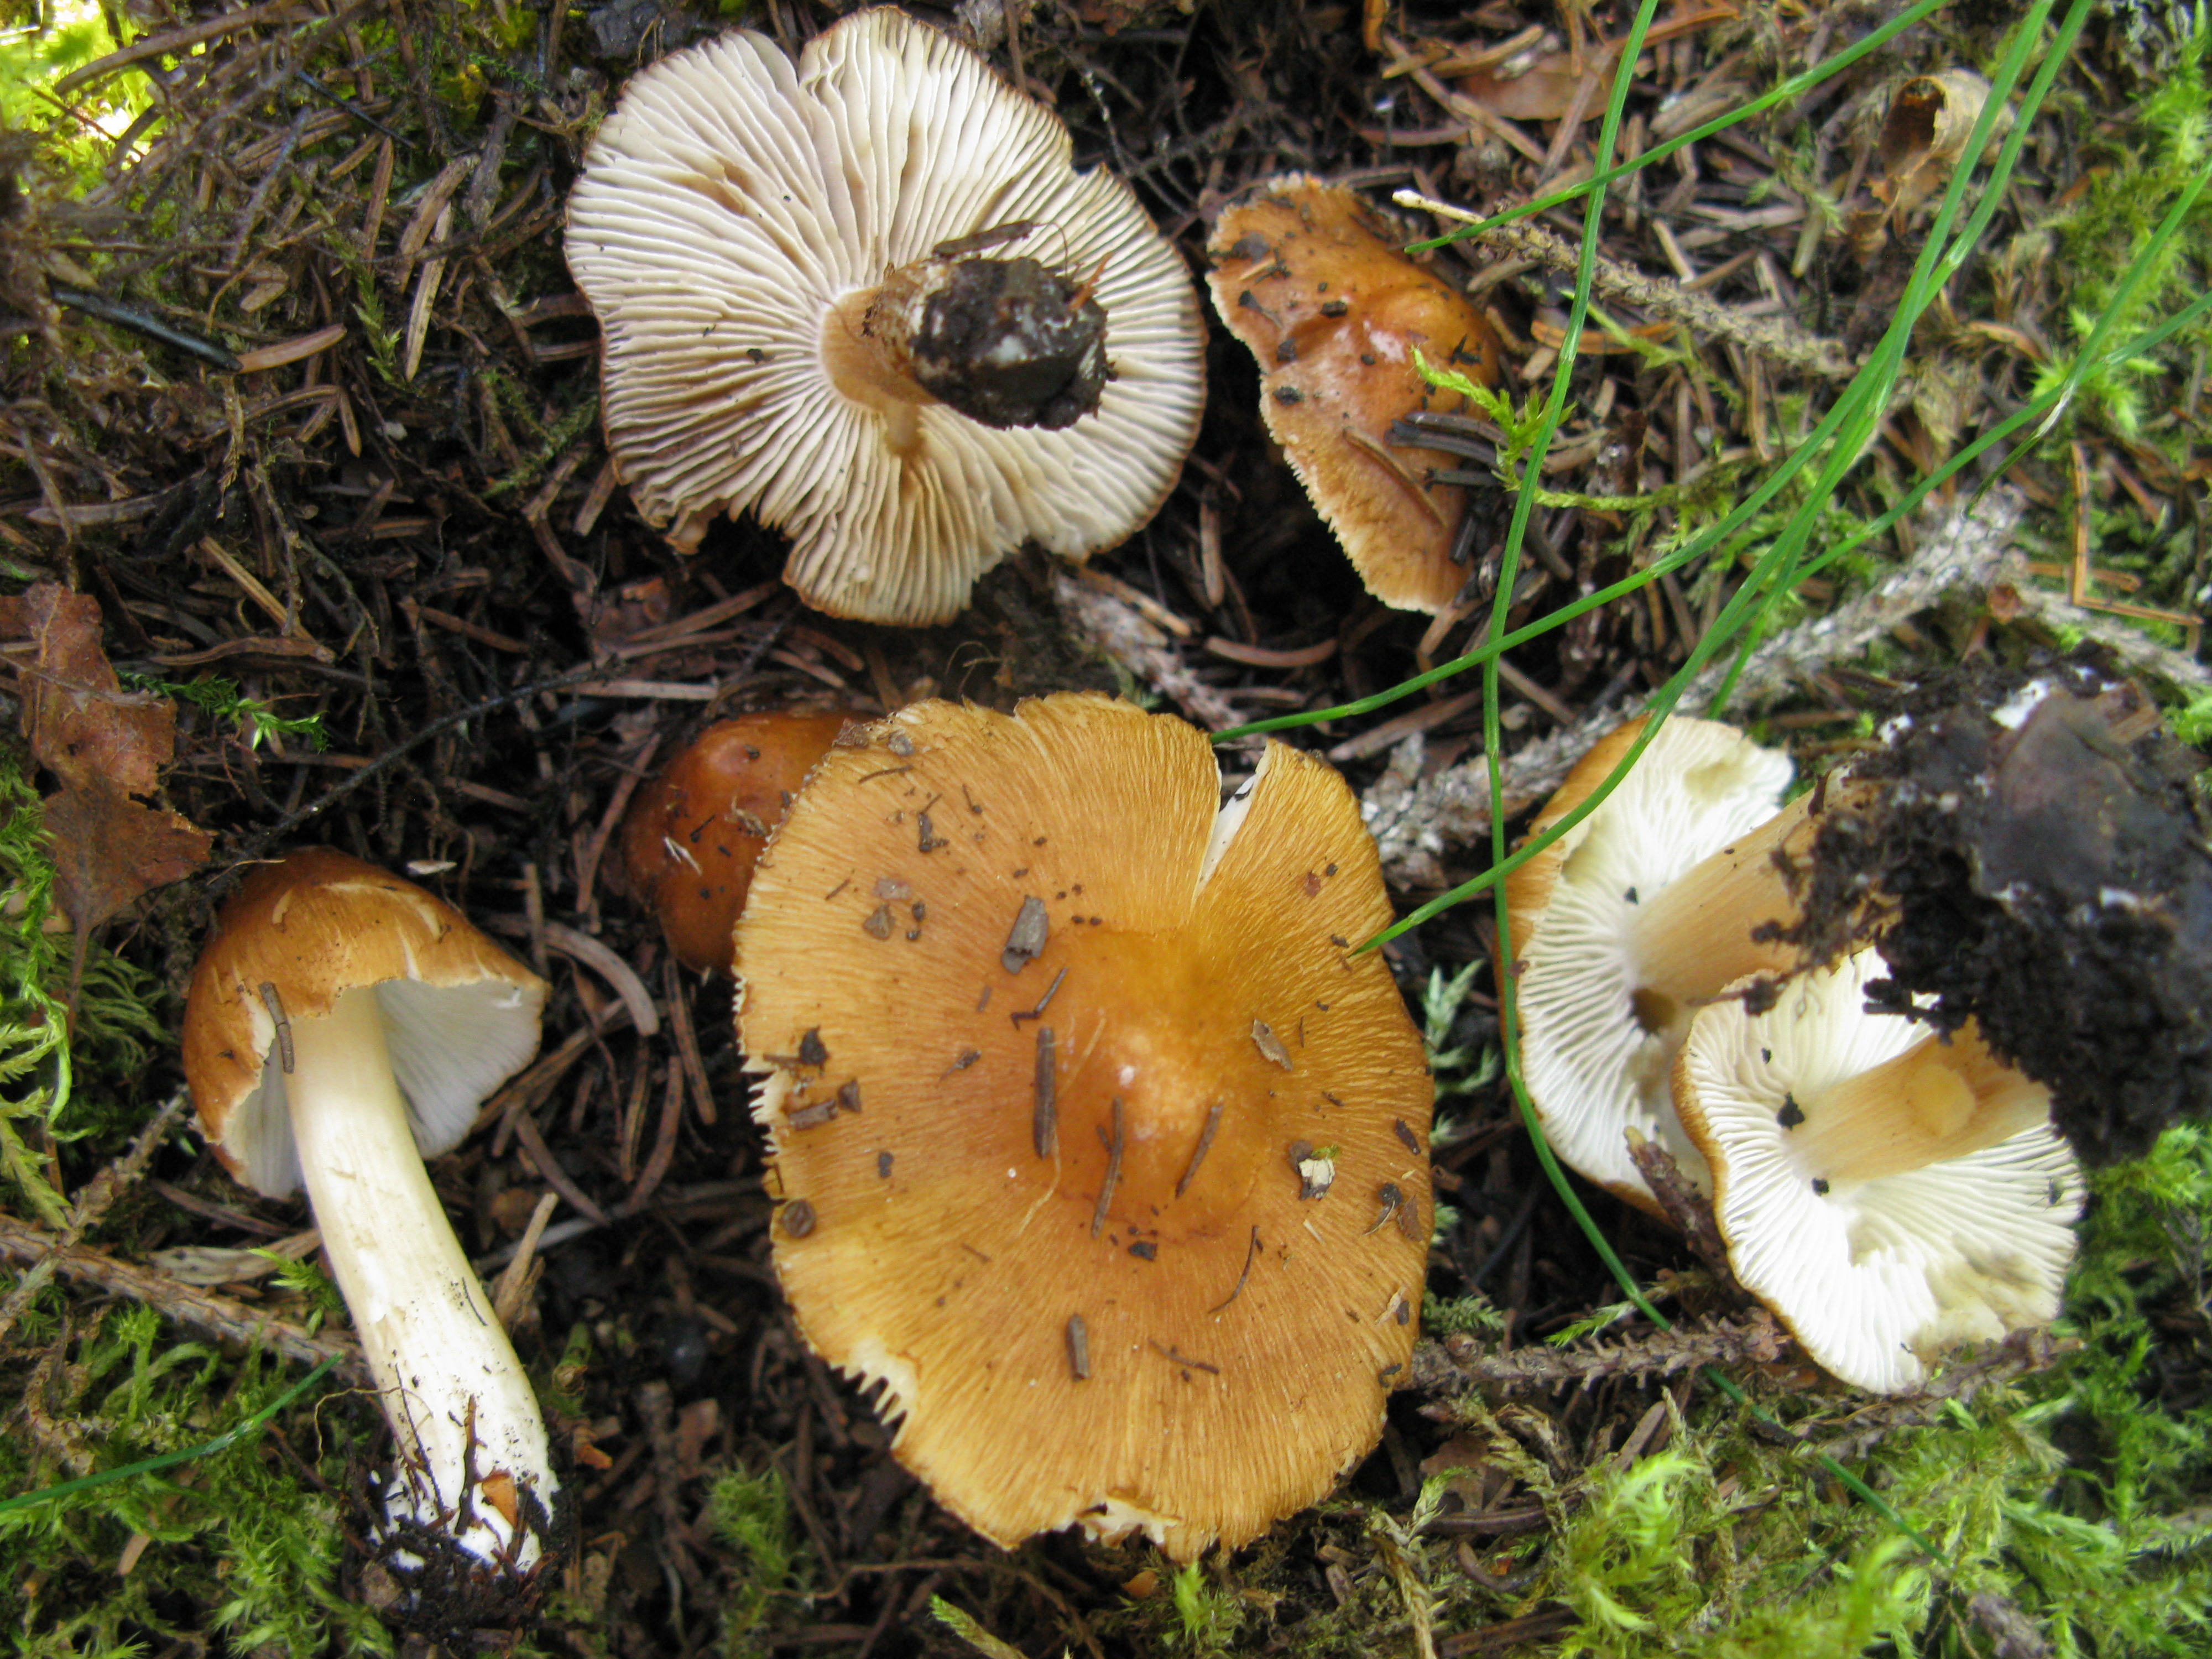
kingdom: Fungi
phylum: Basidiomycota
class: Agaricomycetes
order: Agaricales
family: Inocybaceae
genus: Inosperma
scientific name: Inosperma maculatum
